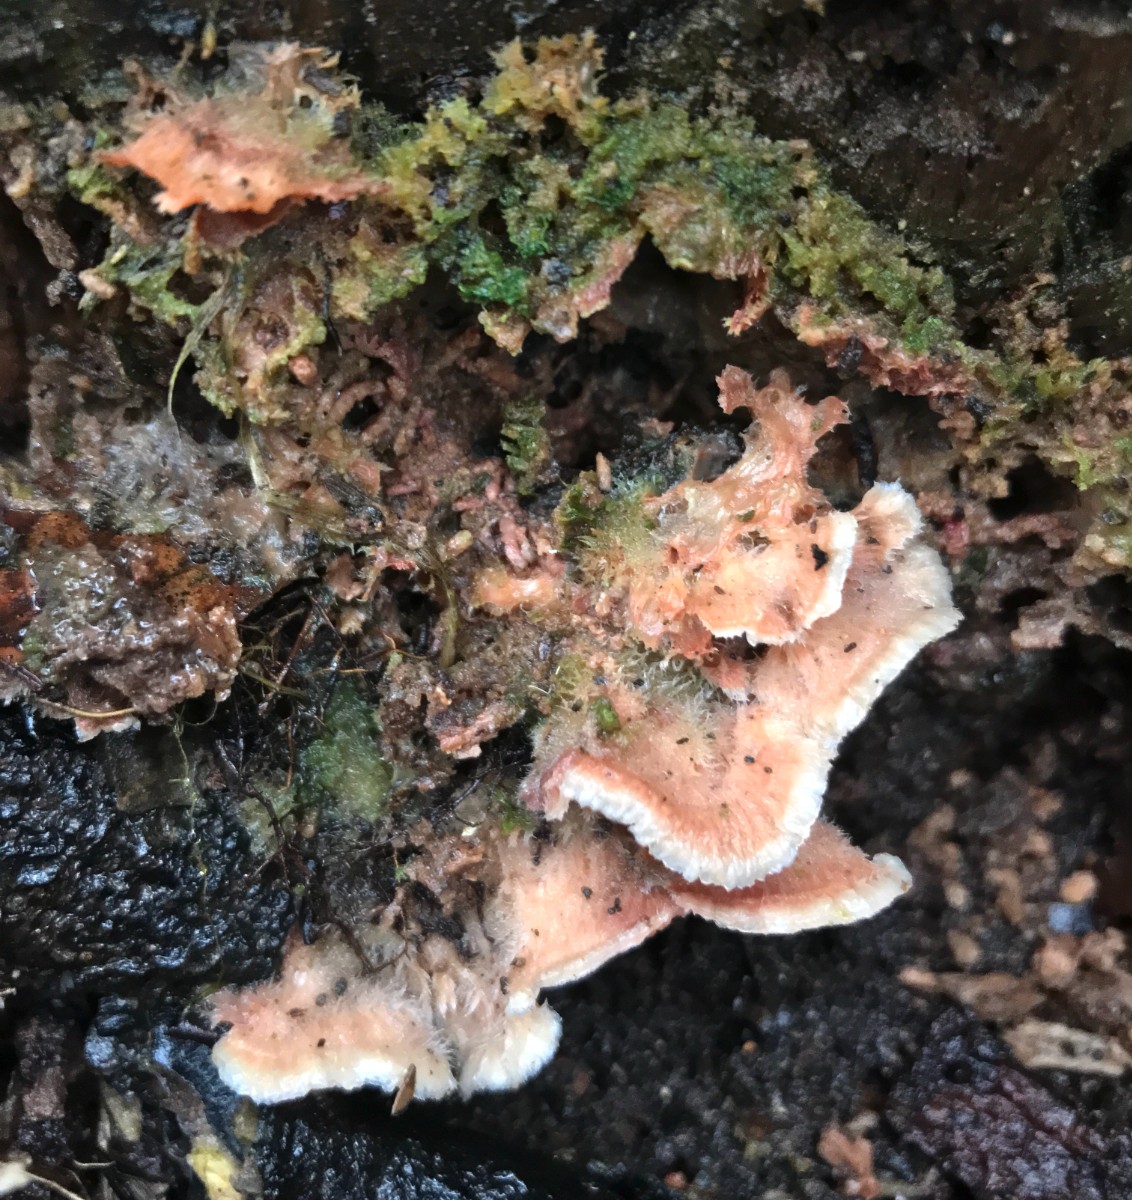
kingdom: Fungi
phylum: Basidiomycota
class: Agaricomycetes
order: Polyporales
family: Meruliaceae
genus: Phlebia
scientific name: Phlebia tremellosa
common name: bævrende åresvamp
